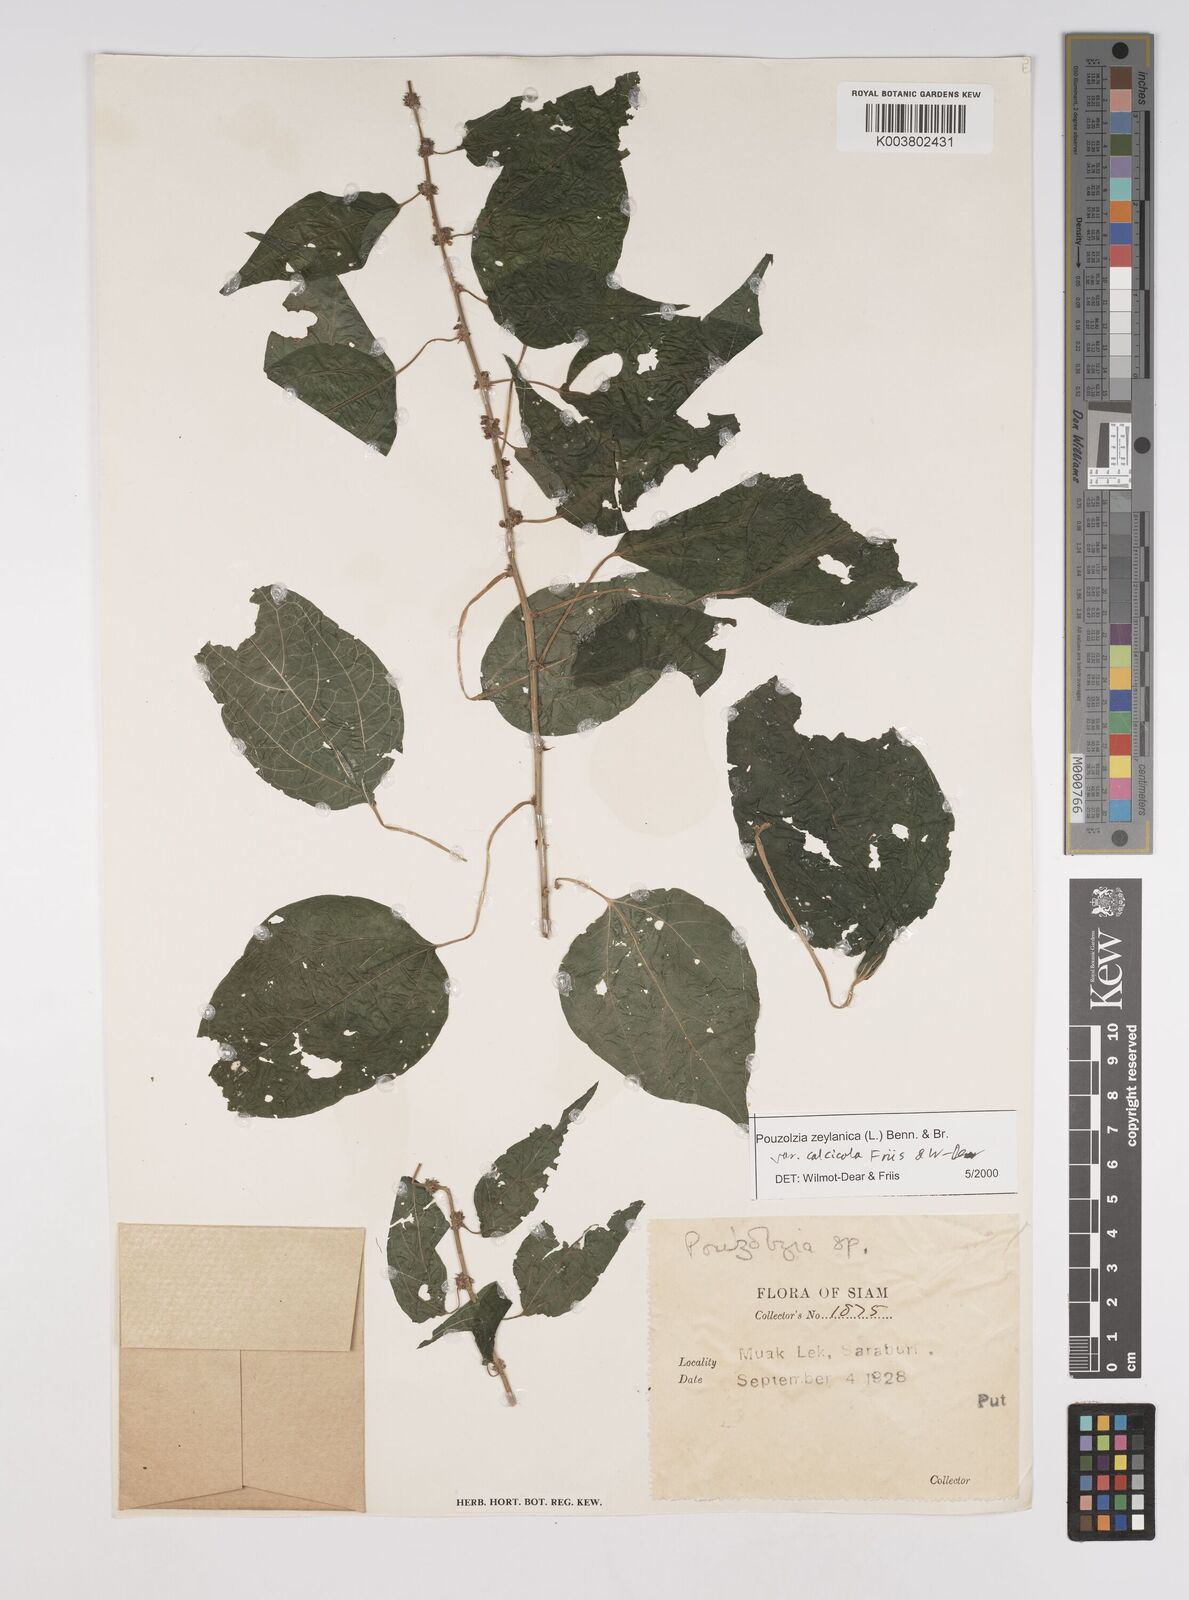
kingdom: Plantae
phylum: Tracheophyta
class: Magnoliopsida
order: Rosales
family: Urticaceae
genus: Pouzolzia
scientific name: Pouzolzia zeylanica
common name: Graceful pouzolzsbush
